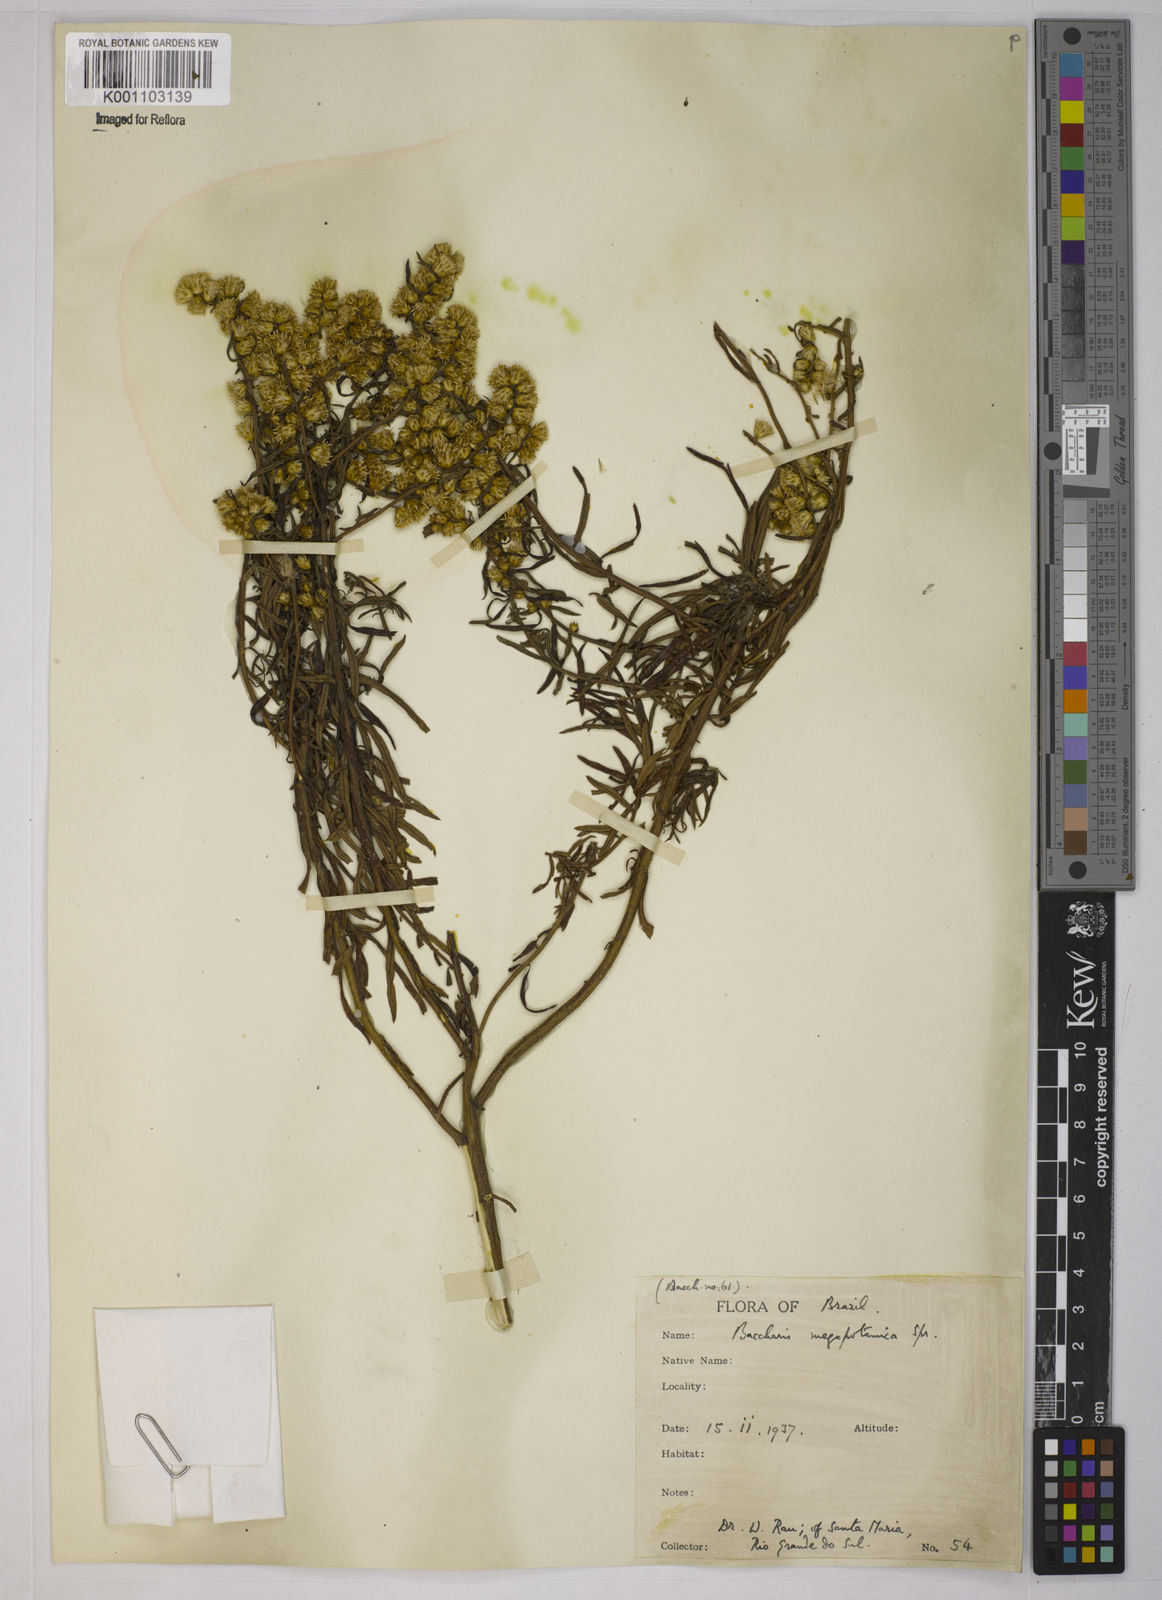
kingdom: Plantae
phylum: Tracheophyta
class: Magnoliopsida
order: Asterales
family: Asteraceae
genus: Baccharis
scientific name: Baccharis megapotamica
